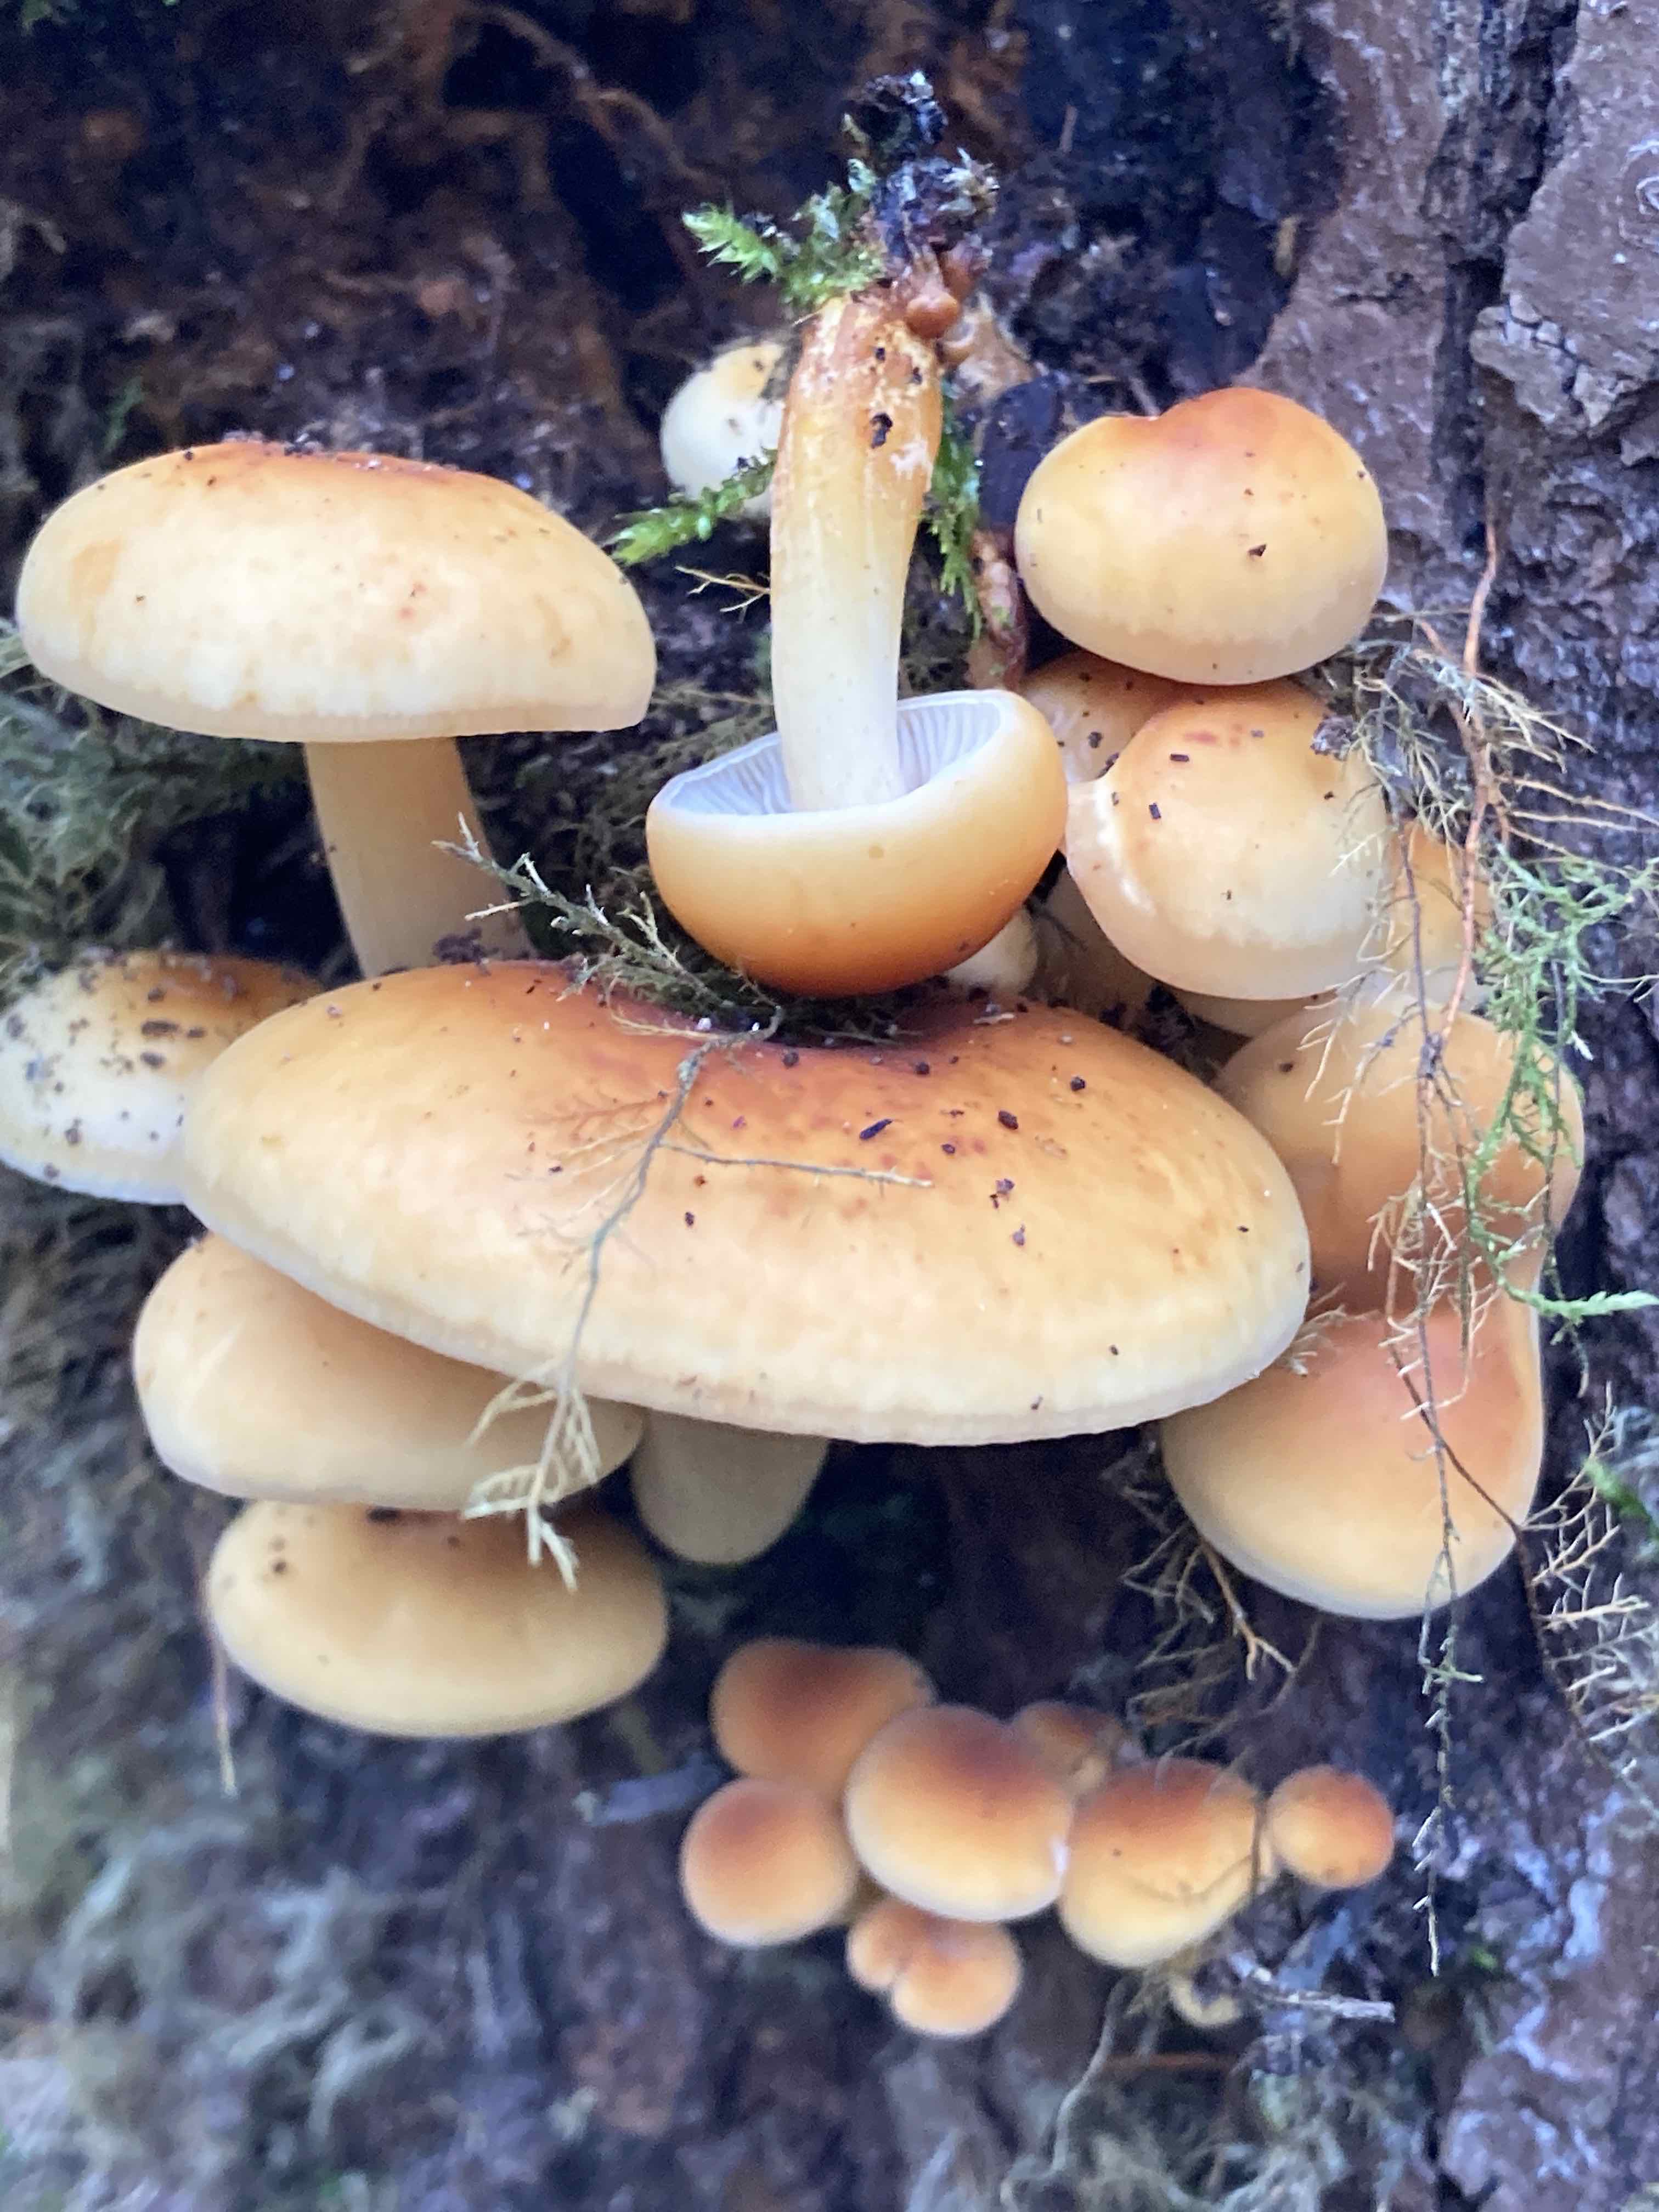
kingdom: Fungi
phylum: Basidiomycota
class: Agaricomycetes
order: Agaricales
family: Physalacriaceae
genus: Flammulina
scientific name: Flammulina
